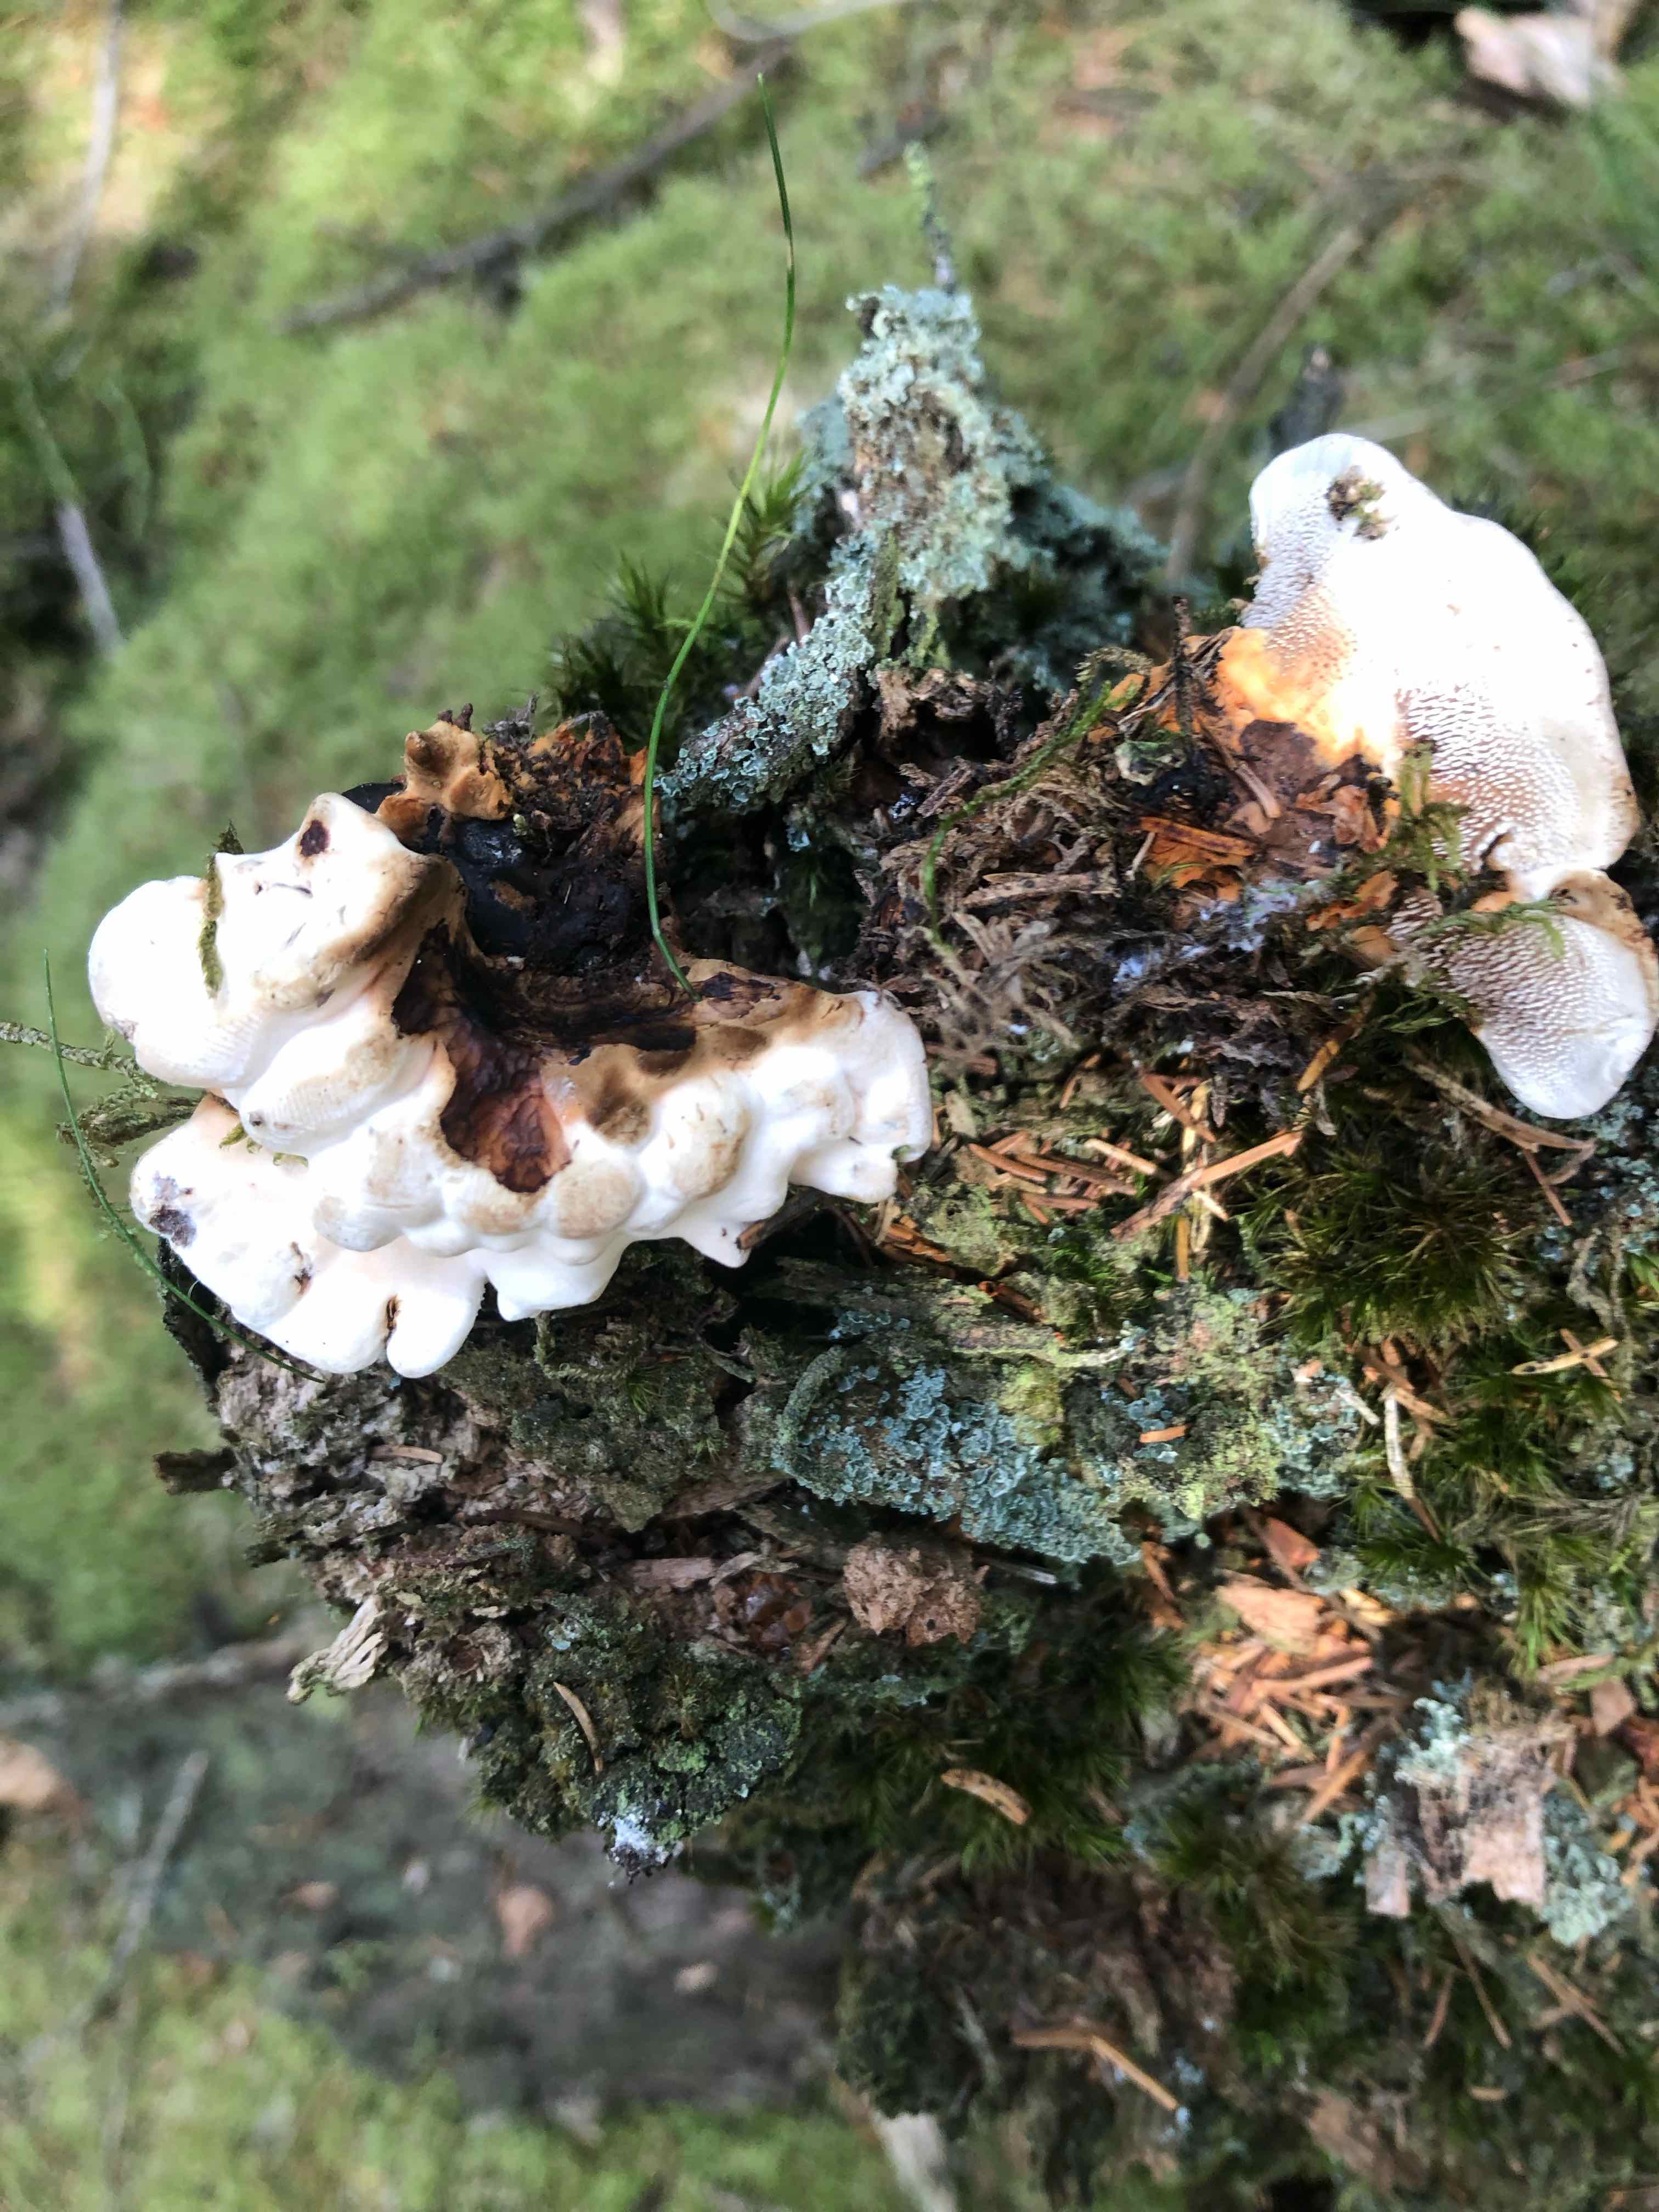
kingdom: Fungi
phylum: Basidiomycota
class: Agaricomycetes
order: Thelephorales
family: Bankeraceae
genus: Hydnellum
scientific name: Hydnellum aurantiacum
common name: orange korkpigsvamp
